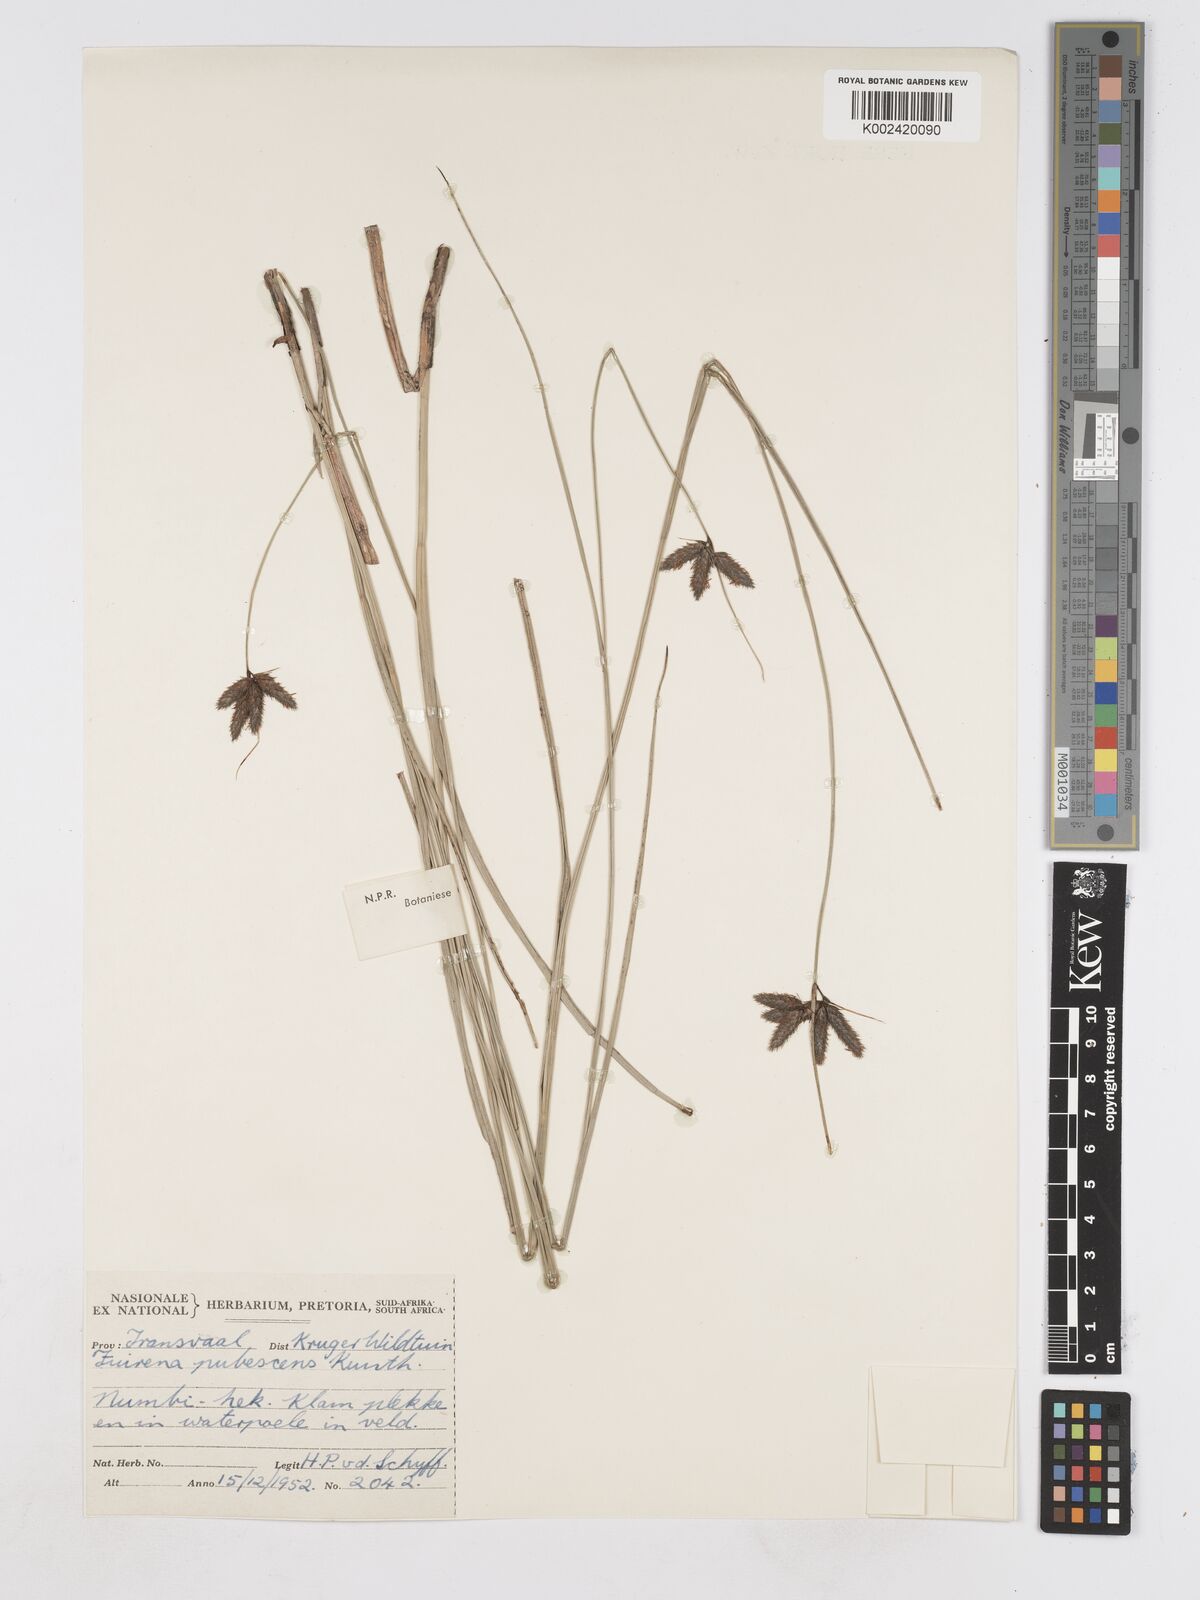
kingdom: Plantae
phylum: Tracheophyta
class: Liliopsida
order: Poales
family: Cyperaceae
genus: Fuirena
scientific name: Fuirena pubescens
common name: Hairy sedge
